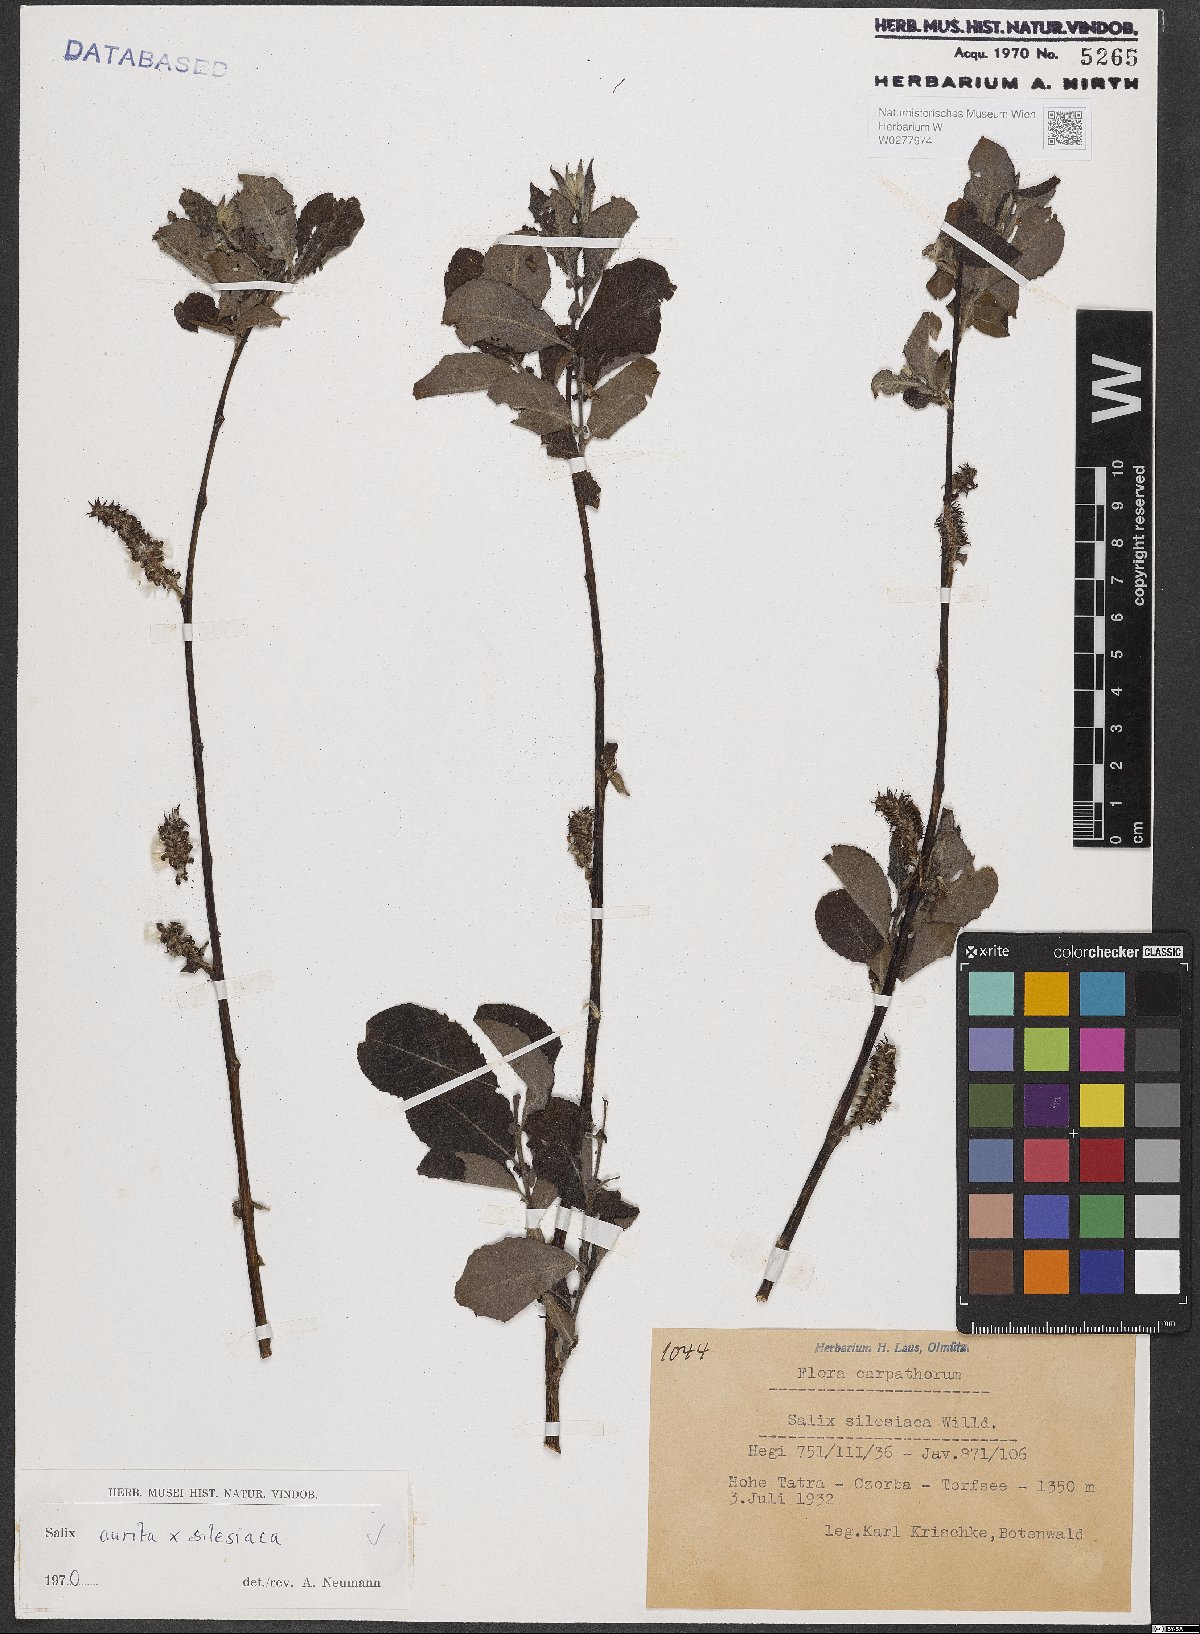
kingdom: Plantae
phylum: Tracheophyta
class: Magnoliopsida
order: Malpighiales
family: Salicaceae
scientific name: Salicaceae
